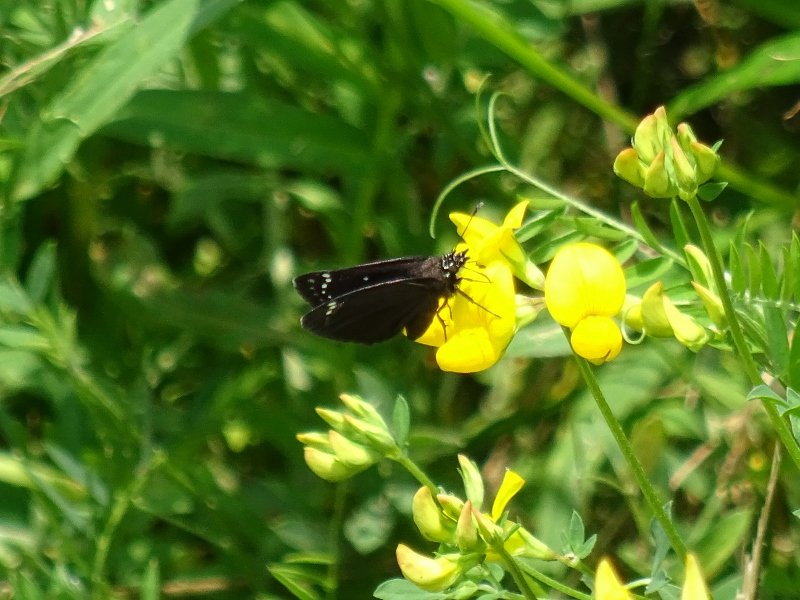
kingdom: Animalia
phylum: Arthropoda
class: Insecta
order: Lepidoptera
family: Hesperiidae
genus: Pholisora
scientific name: Pholisora catullus
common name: Common Sootywing
